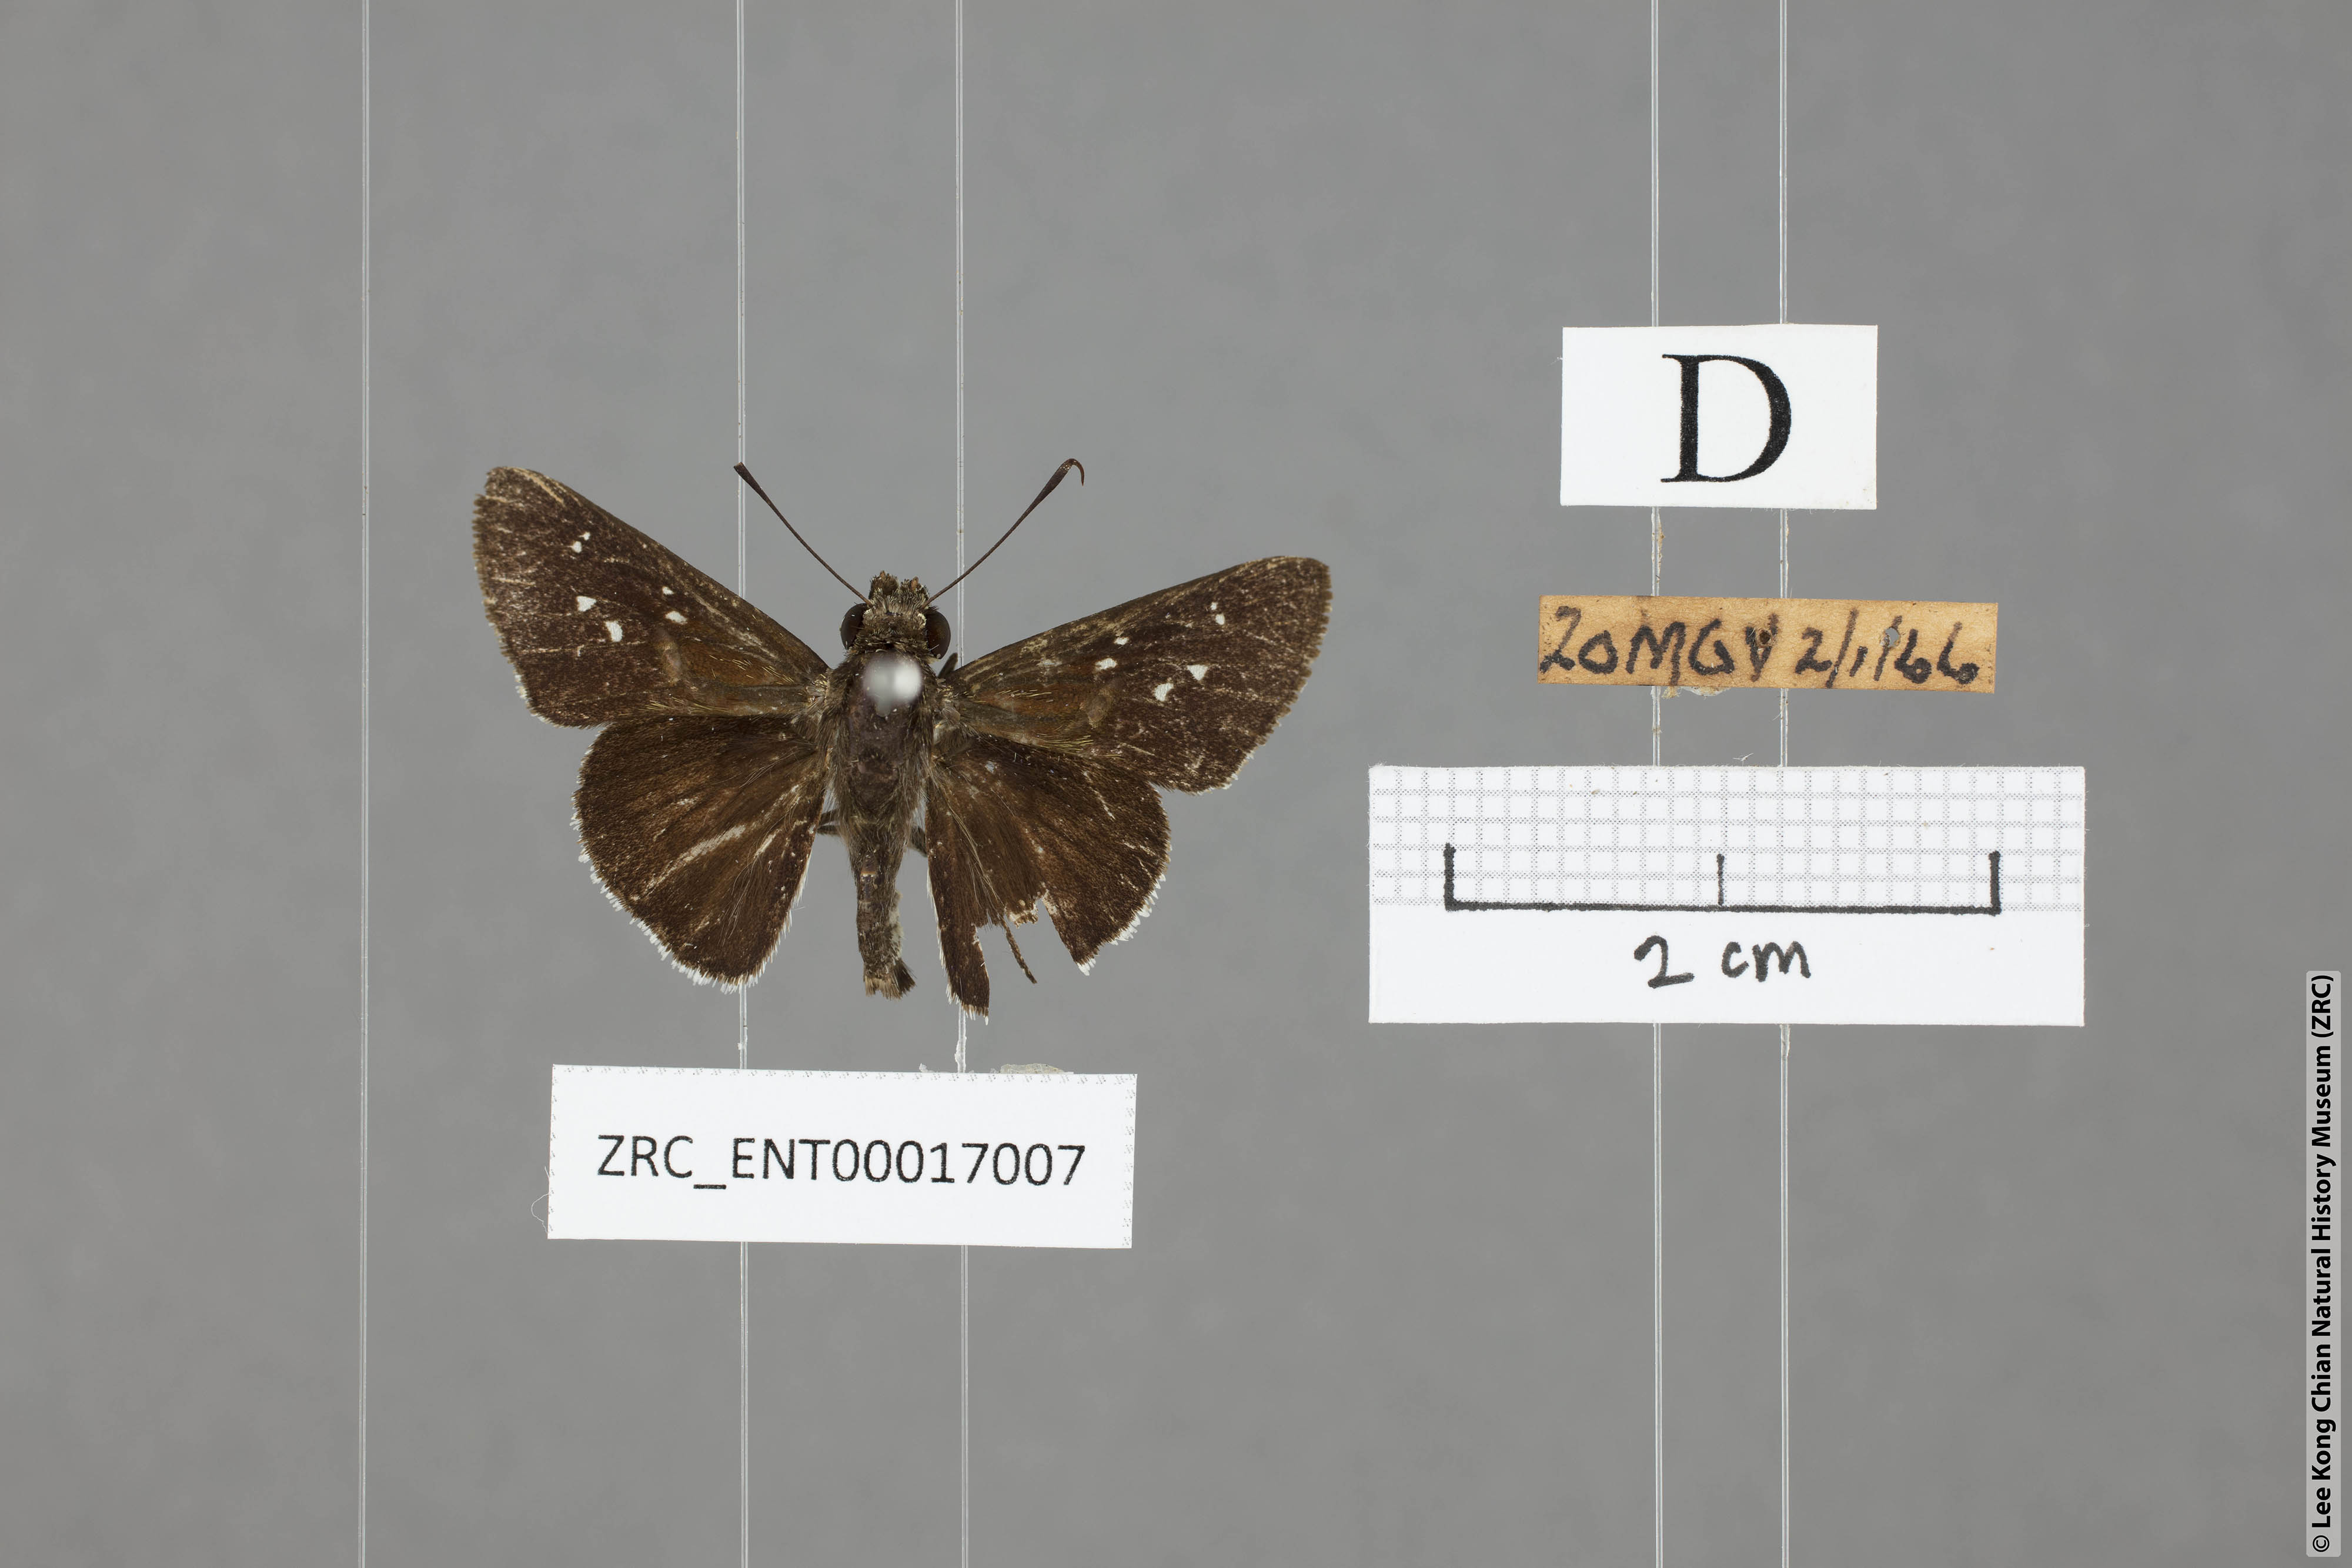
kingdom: Animalia
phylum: Arthropoda
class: Insecta
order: Lepidoptera
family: Hesperiidae
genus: Halpe
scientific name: Halpe insignis
